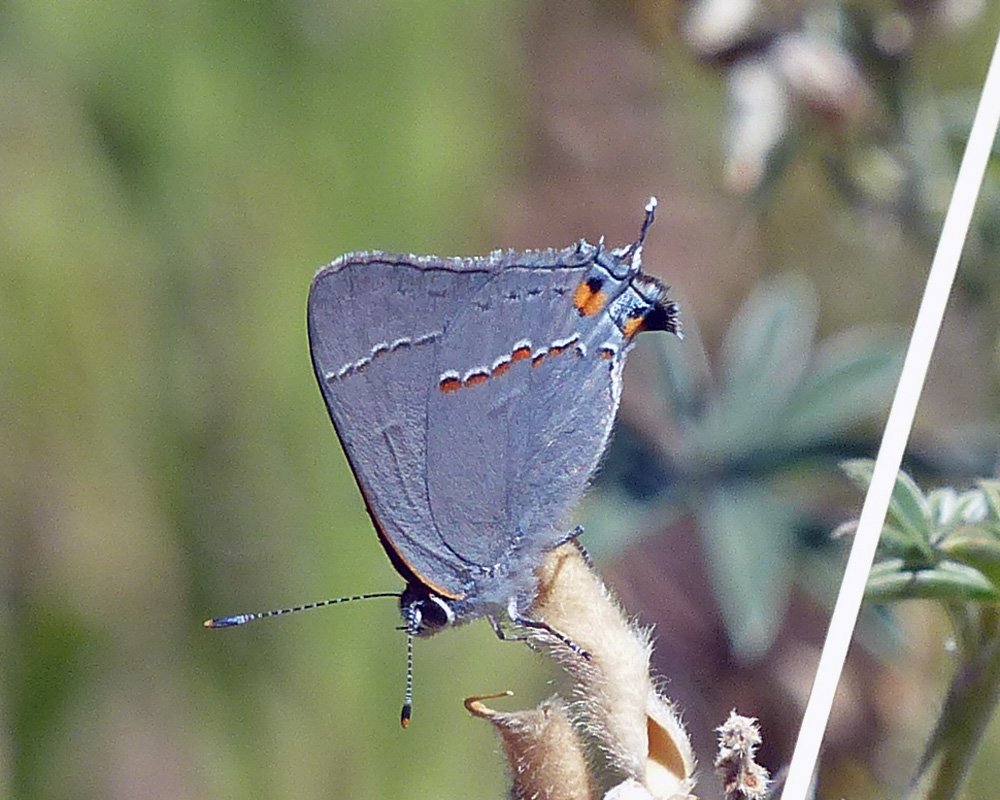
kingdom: Animalia
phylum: Arthropoda
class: Insecta
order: Lepidoptera
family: Lycaenidae
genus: Strymon
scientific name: Strymon melinus
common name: Gray Hairstreak
